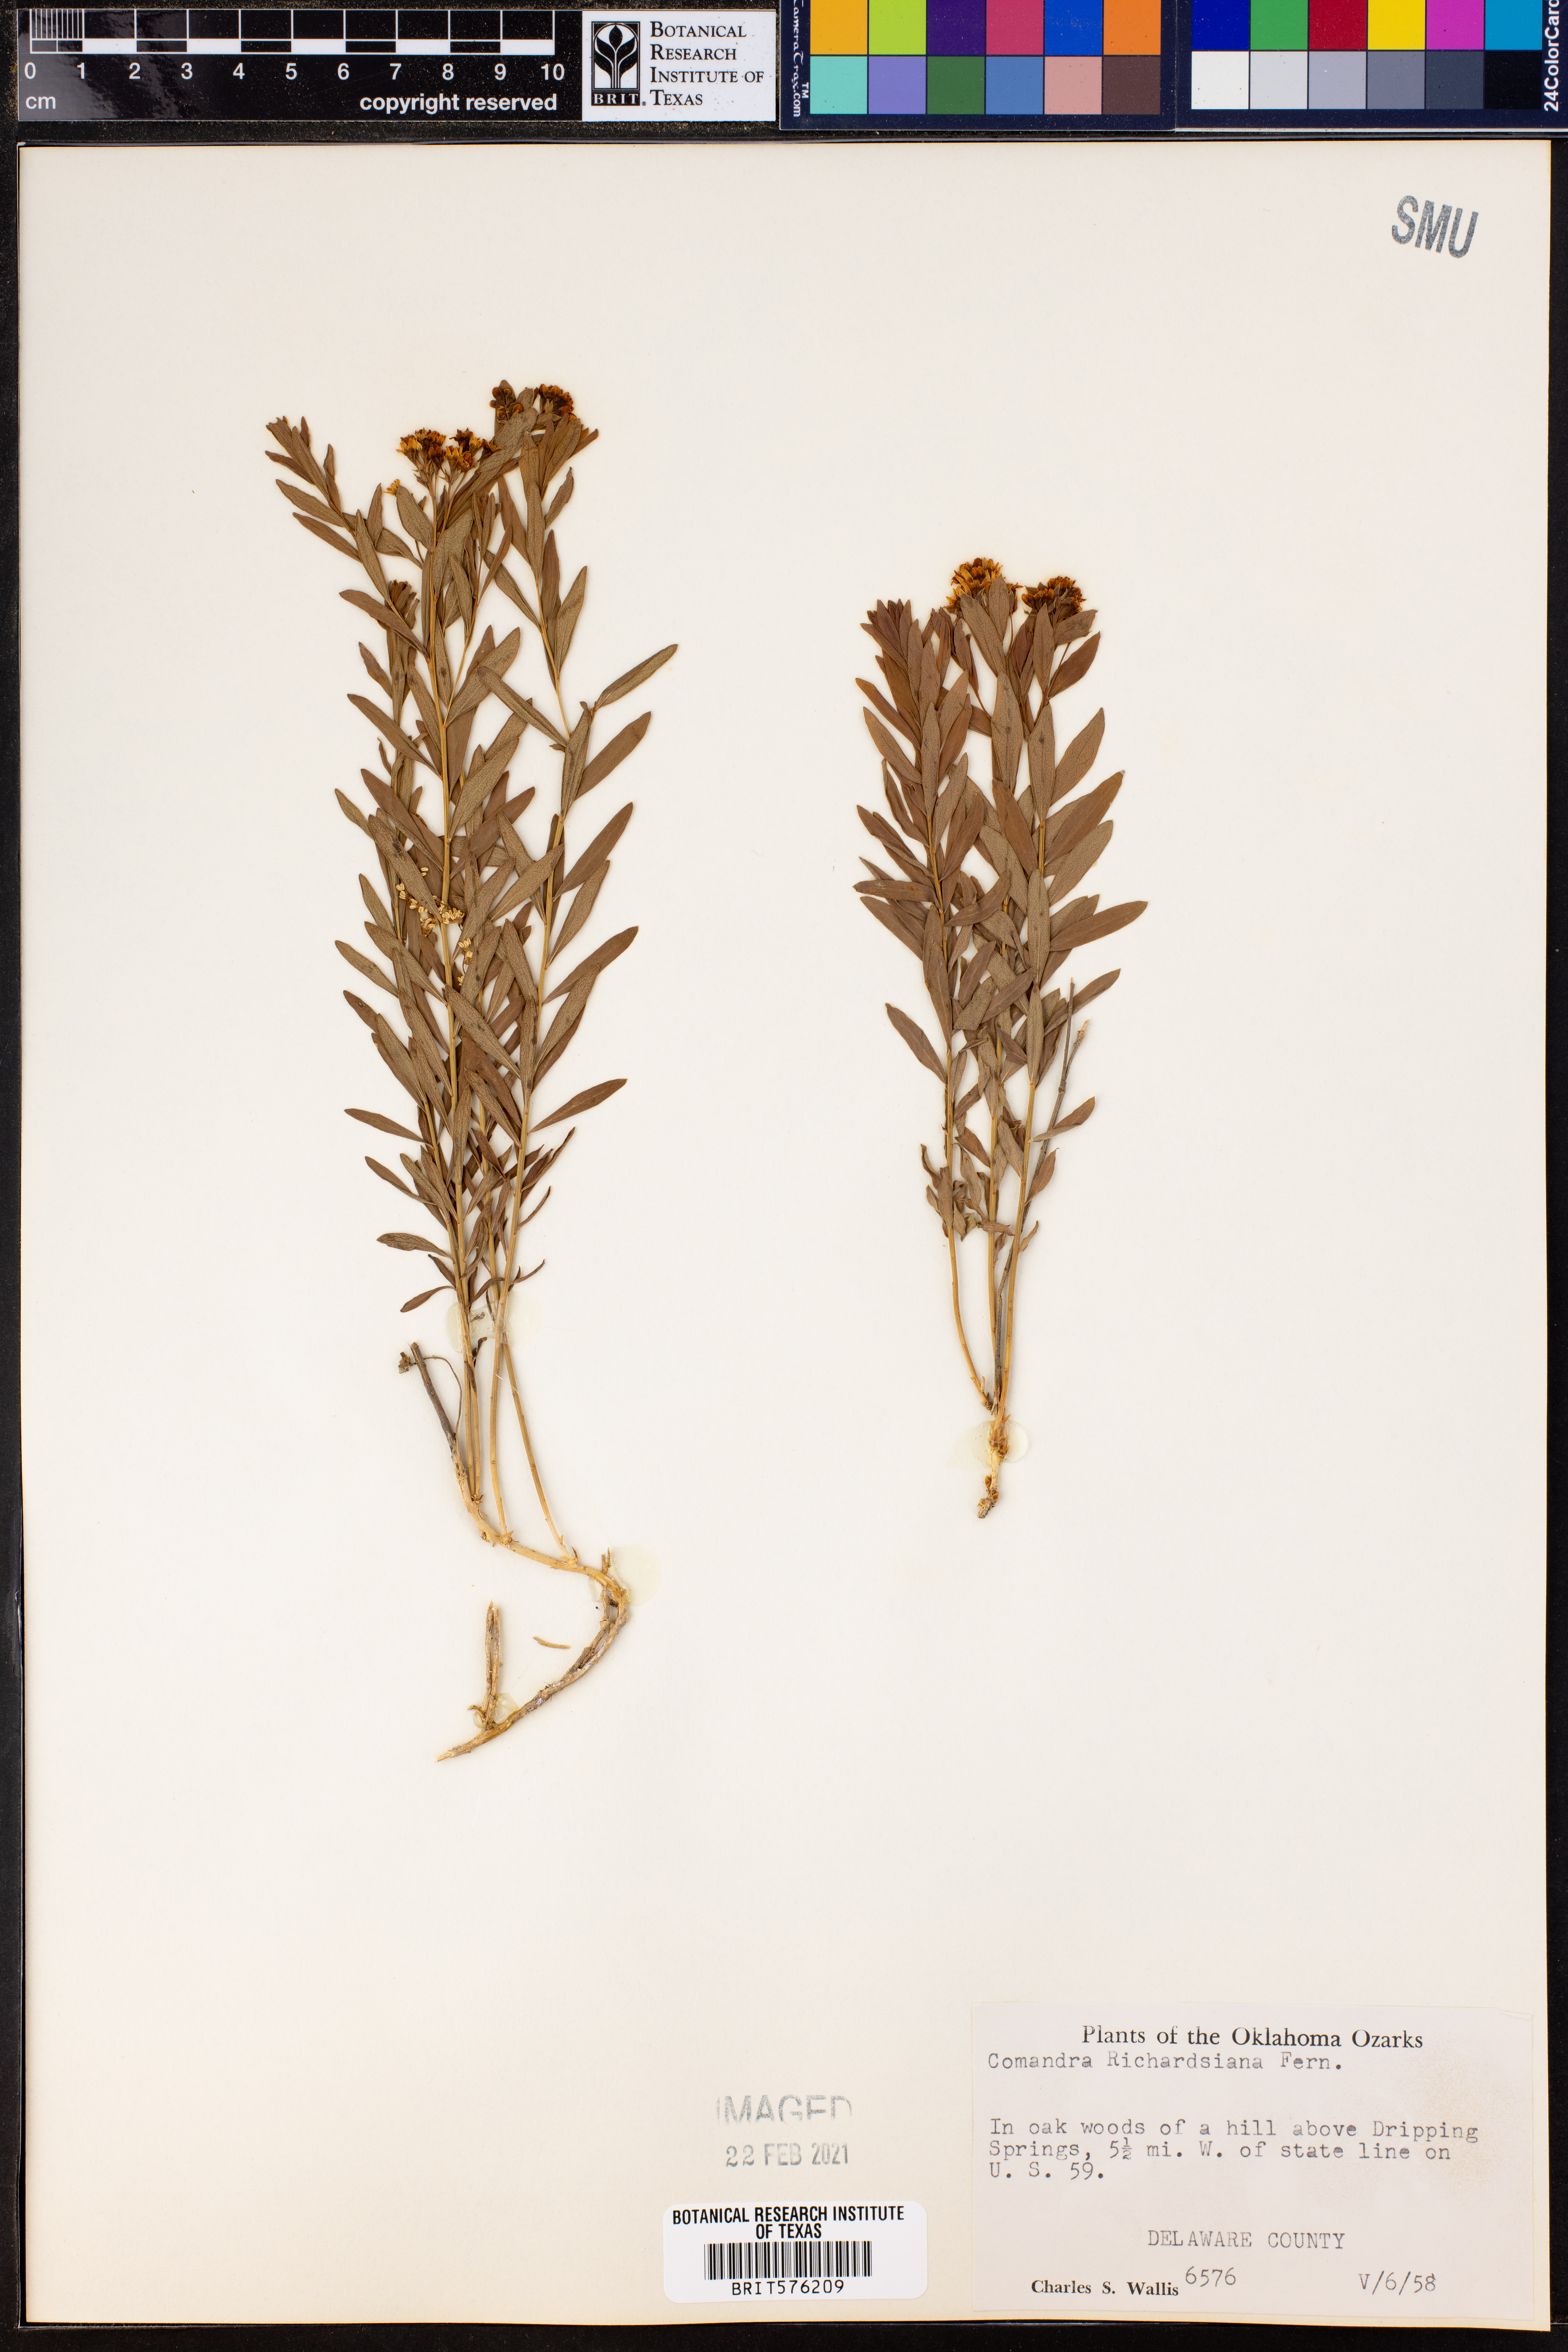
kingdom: Plantae
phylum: Tracheophyta
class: Magnoliopsida
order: Santalales
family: Comandraceae
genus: Comandra
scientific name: Comandra umbellata
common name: Bastard toadflax
